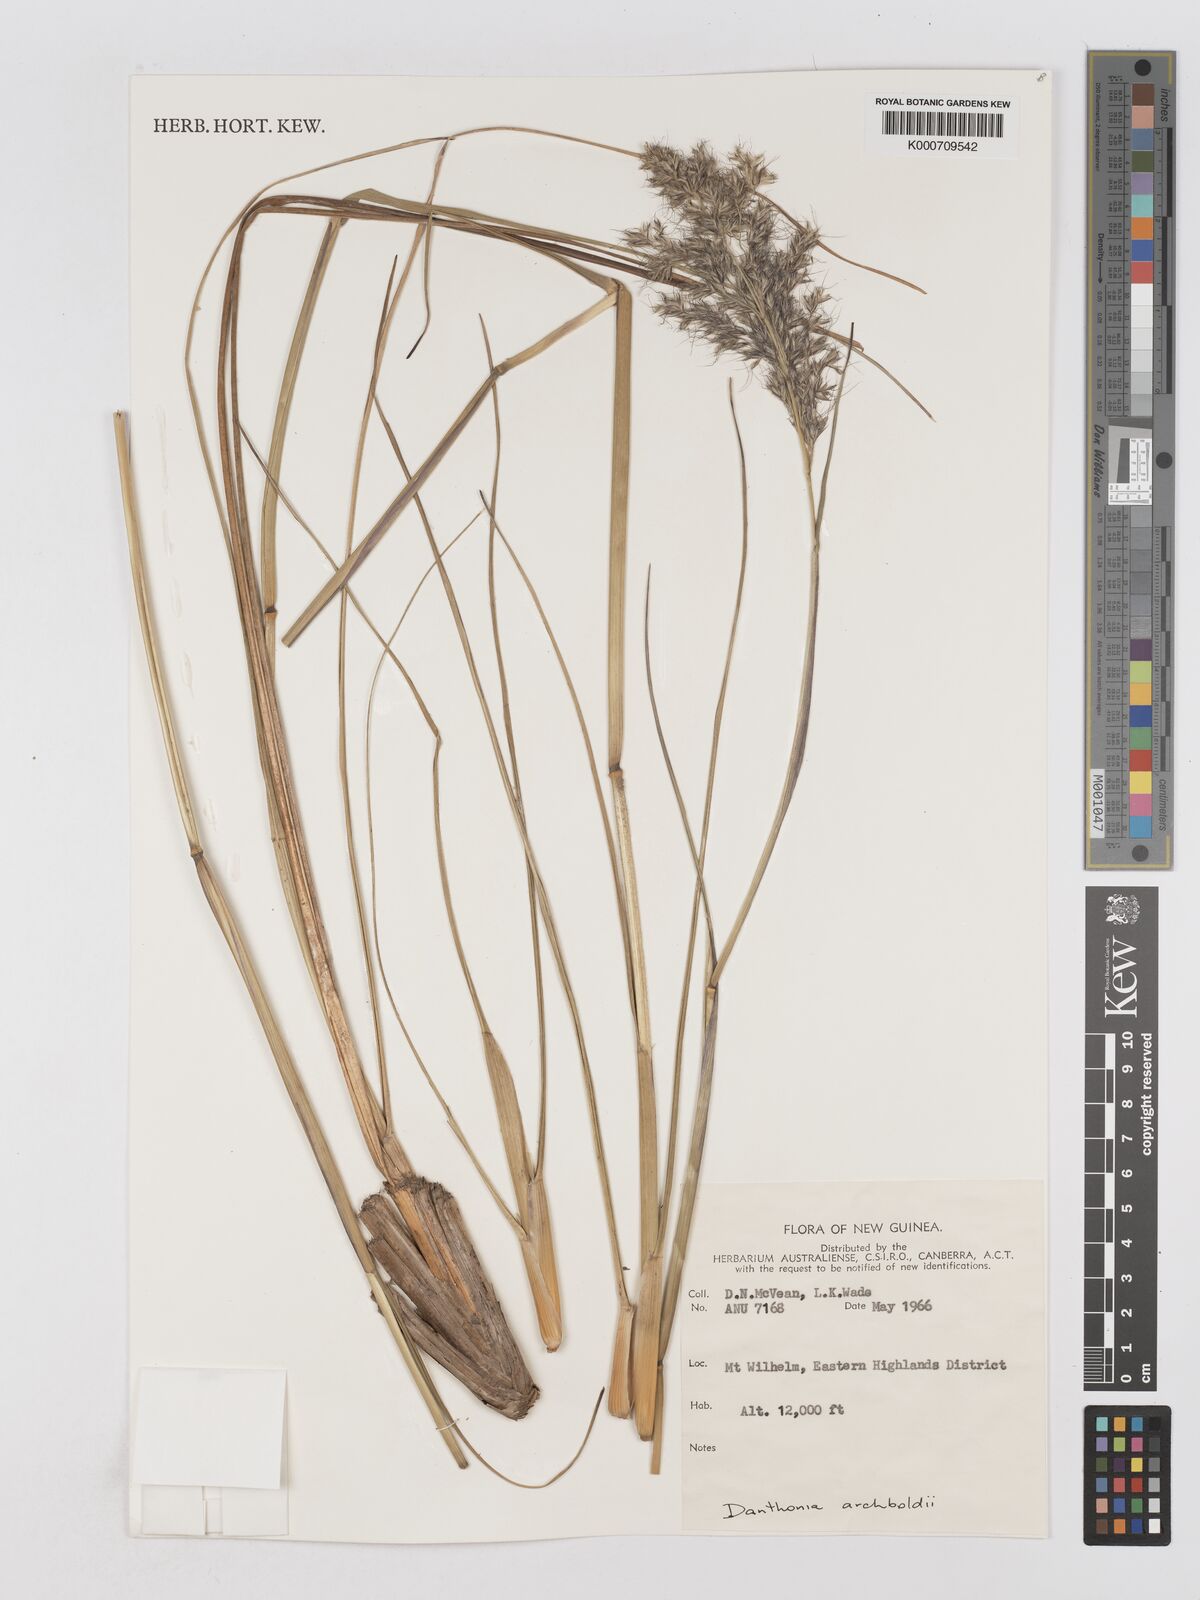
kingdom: Plantae
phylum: Tracheophyta
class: Liliopsida
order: Poales
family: Poaceae
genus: Chimaerochloa
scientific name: Chimaerochloa archboldii
